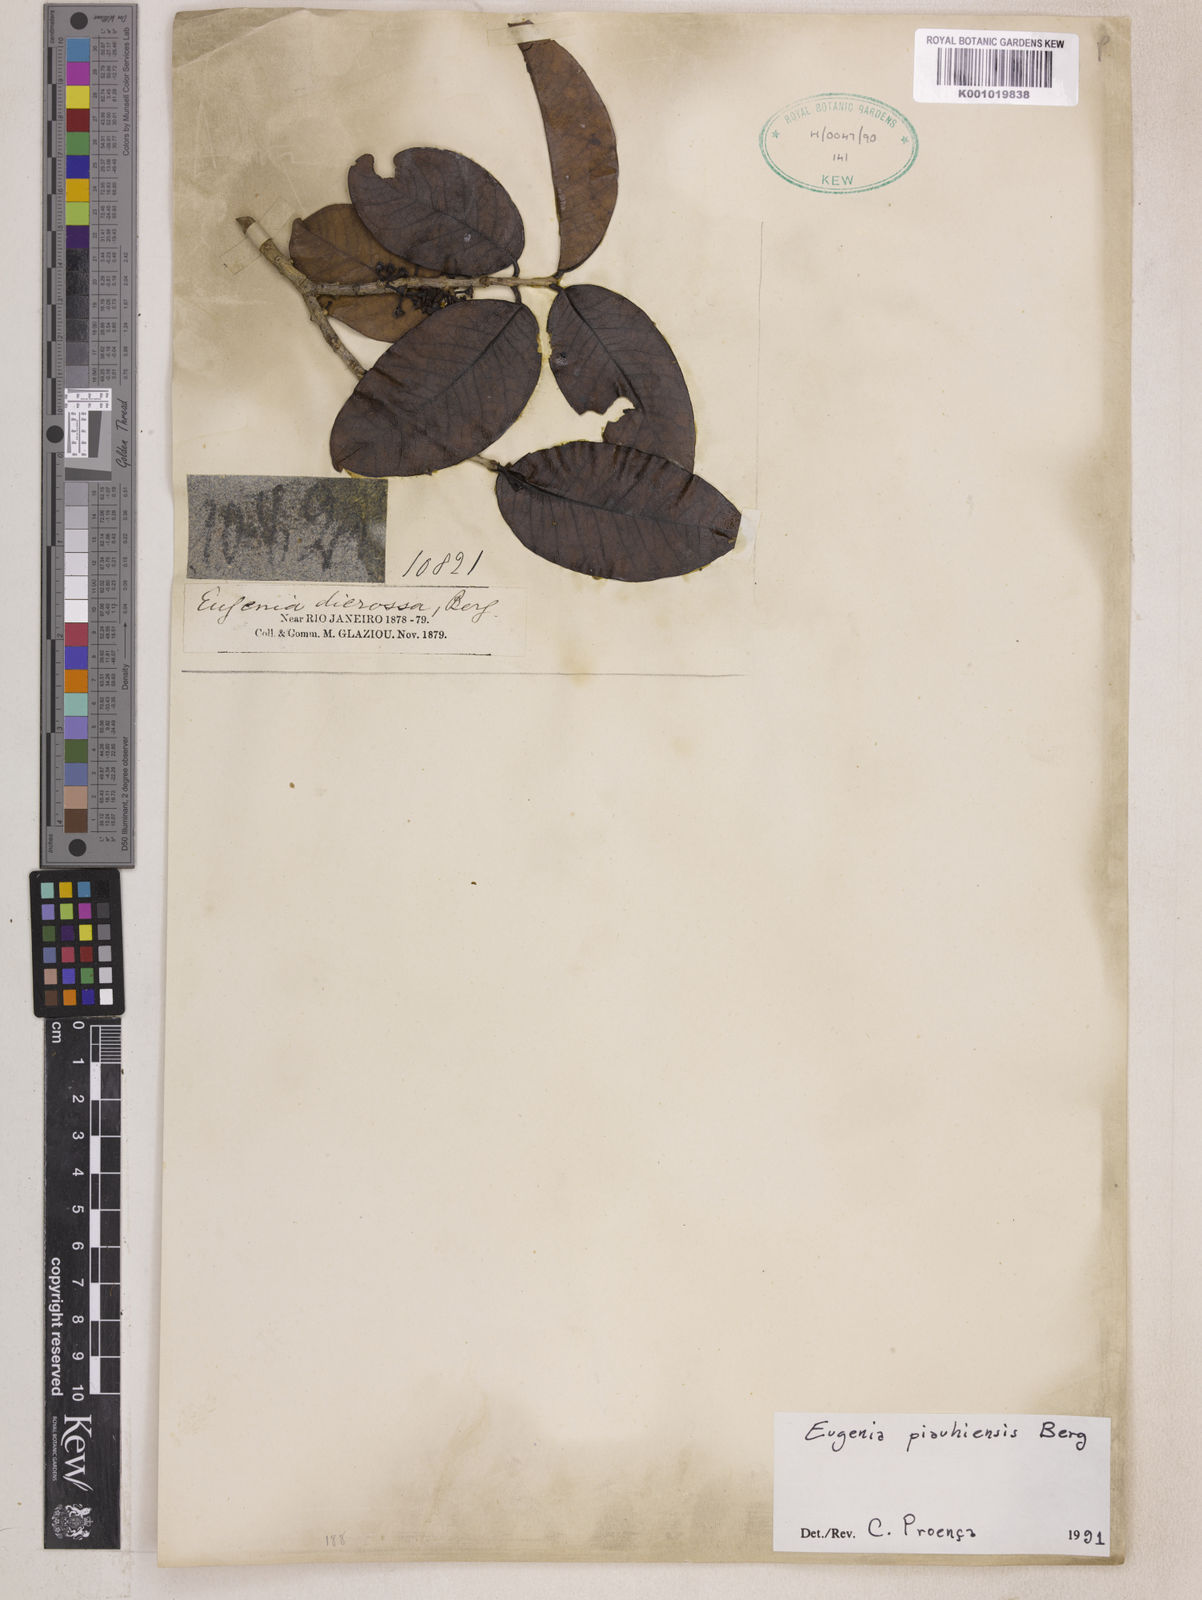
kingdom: Plantae
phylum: Tracheophyta
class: Magnoliopsida
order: Myrtales
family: Myrtaceae
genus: Eugenia
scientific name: Eugenia stictopetala
